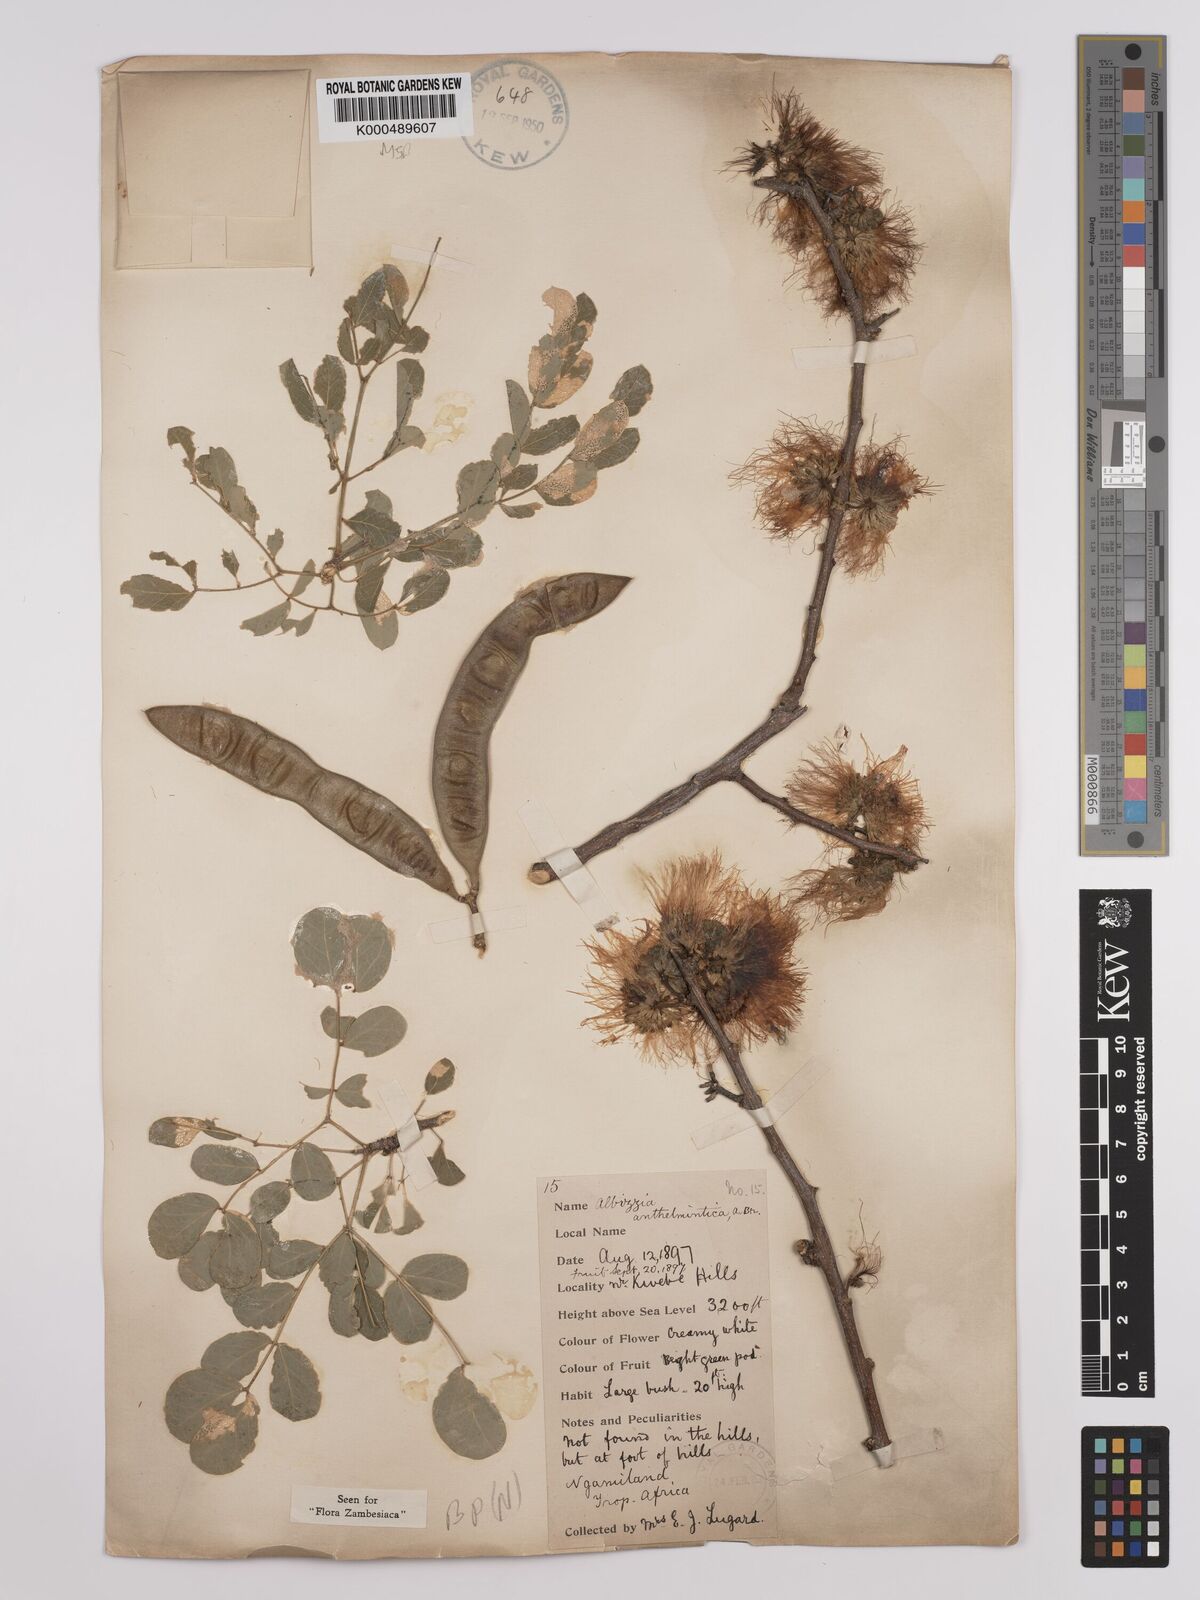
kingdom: Plantae
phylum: Tracheophyta
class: Magnoliopsida
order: Fabales
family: Fabaceae
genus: Albizia
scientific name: Albizia anthelmintica
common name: Worm-bark false-thorn
